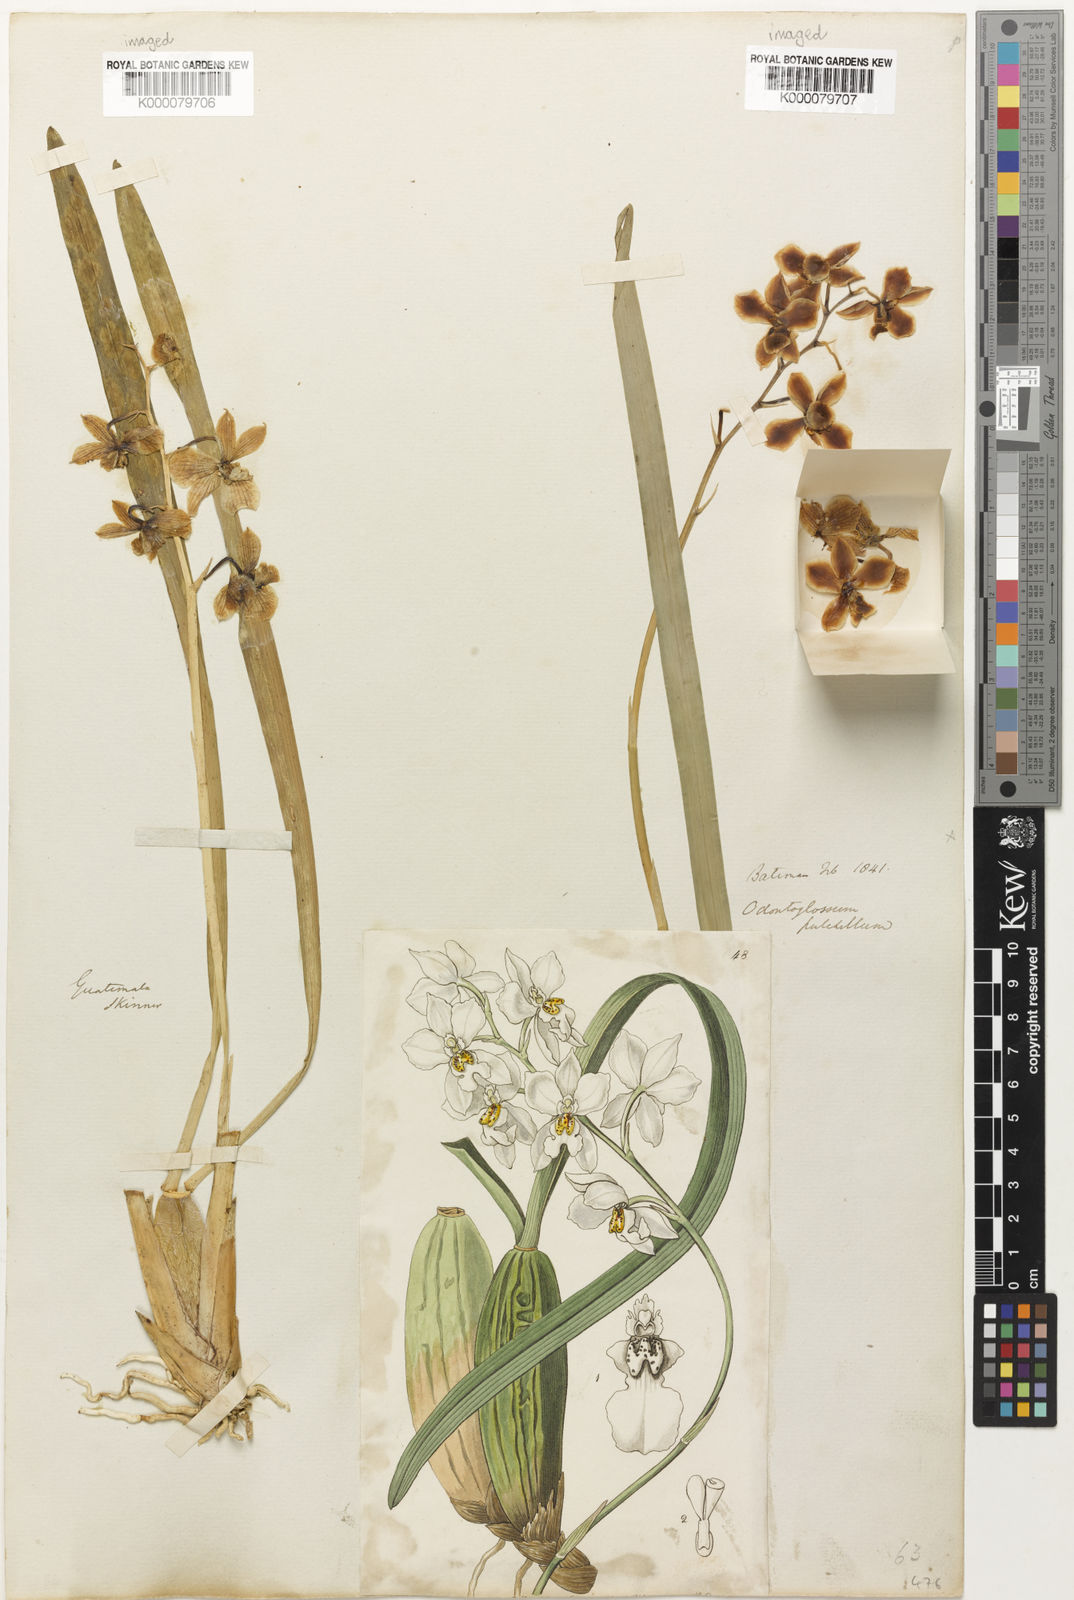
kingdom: Plantae
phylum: Tracheophyta
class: Liliopsida
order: Asparagales
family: Orchidaceae
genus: Cuitlauzina
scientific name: Cuitlauzina pulchella
